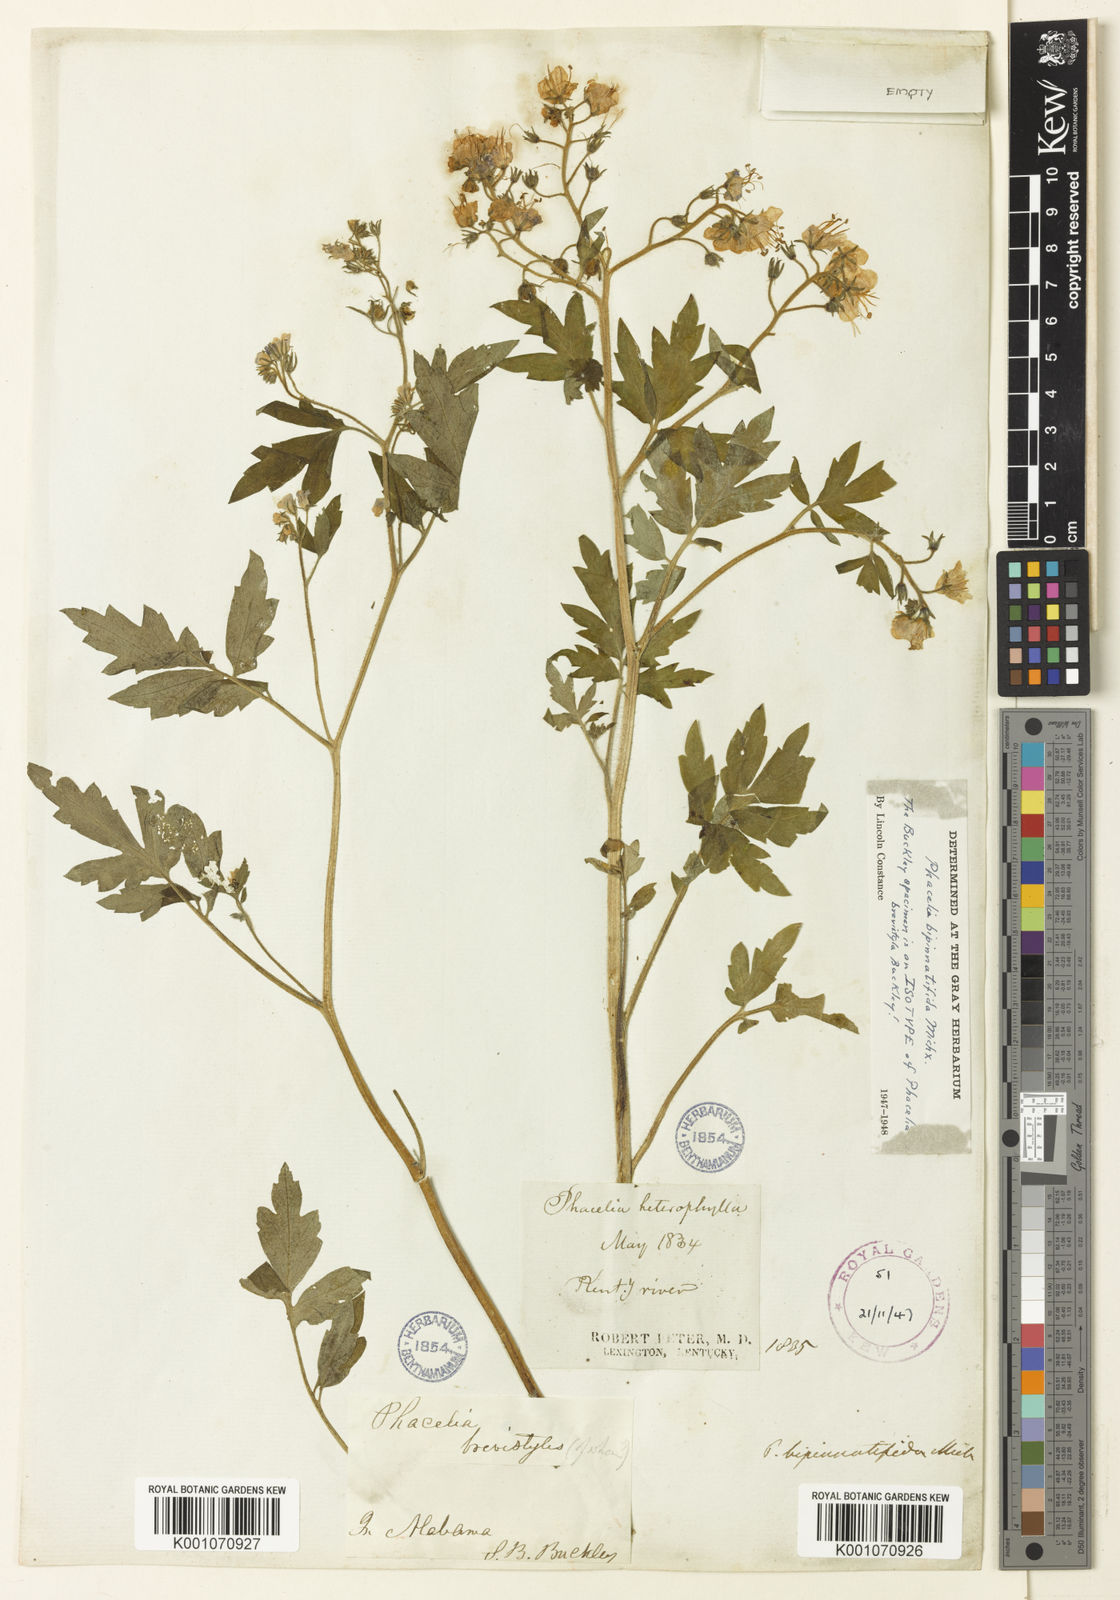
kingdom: Plantae
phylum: Tracheophyta
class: Magnoliopsida
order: Boraginales
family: Hydrophyllaceae
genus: Phacelia
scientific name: Phacelia bipinnatifida
